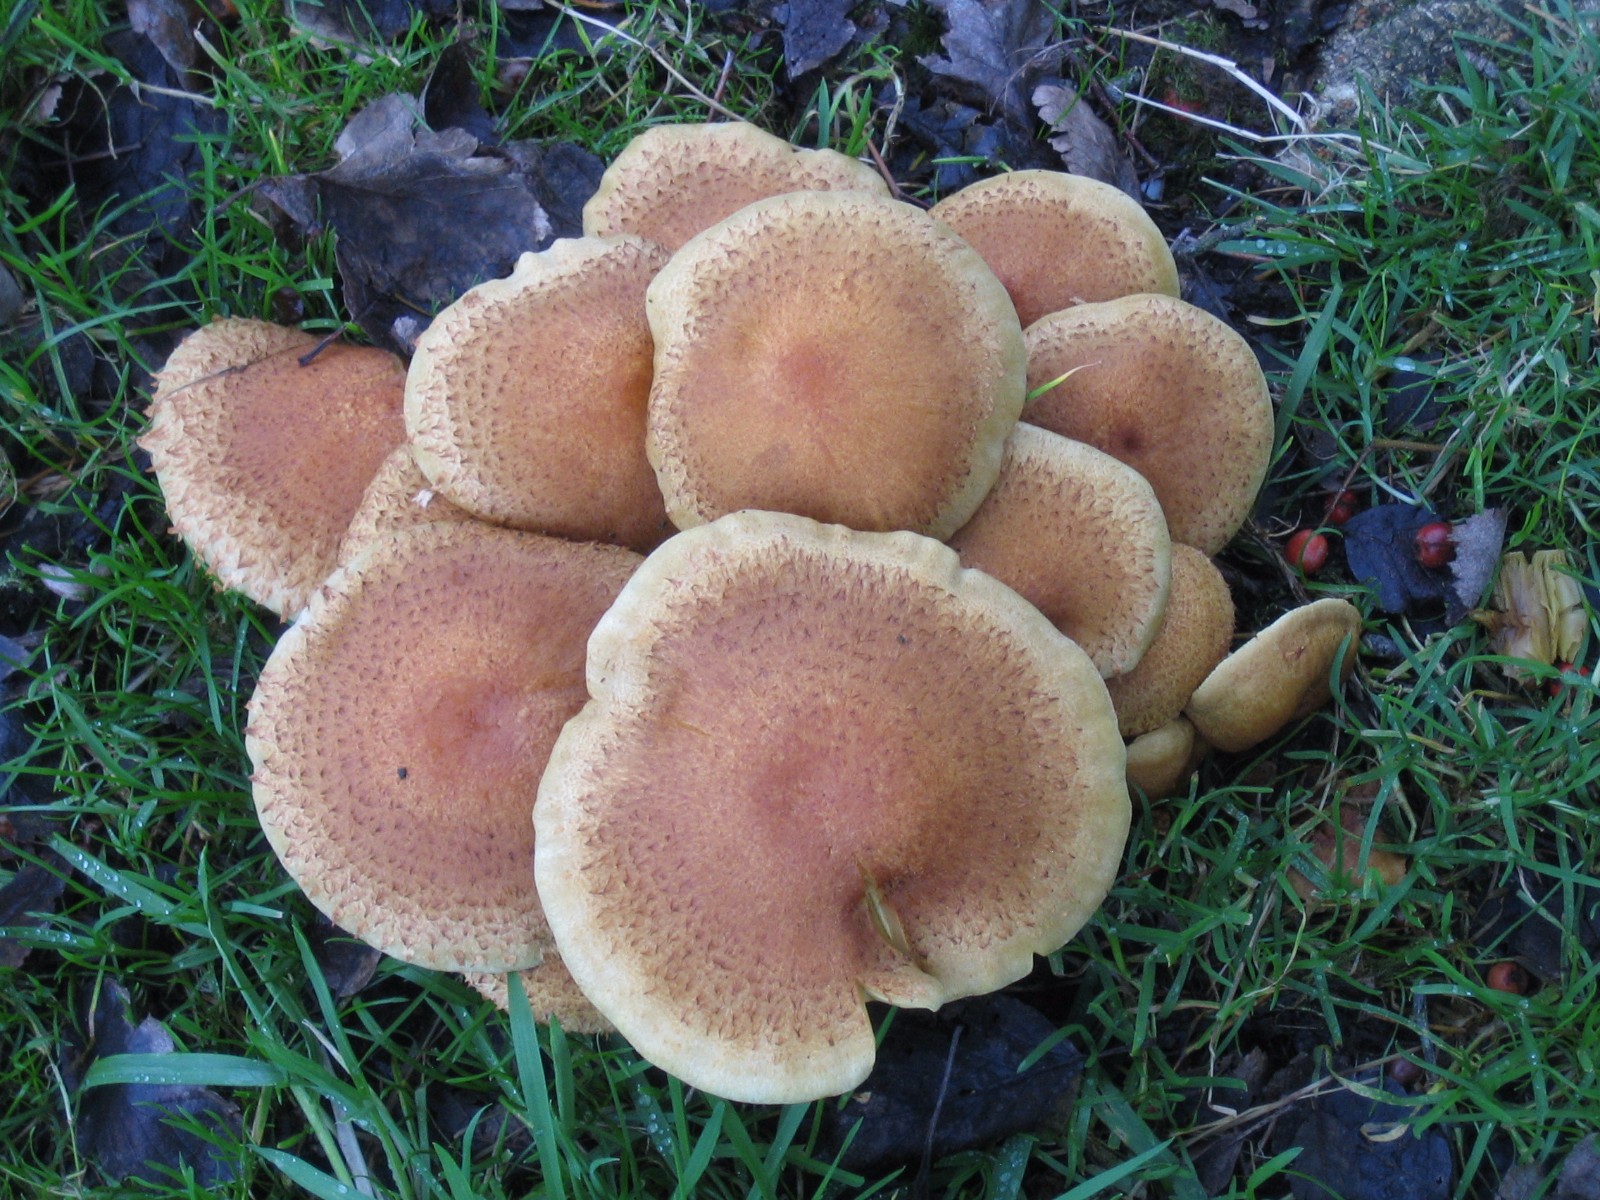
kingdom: Fungi
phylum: Basidiomycota
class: Agaricomycetes
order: Agaricales
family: Strophariaceae
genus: Pholiota
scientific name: Pholiota squarrosa
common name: krumskællet skælhat
